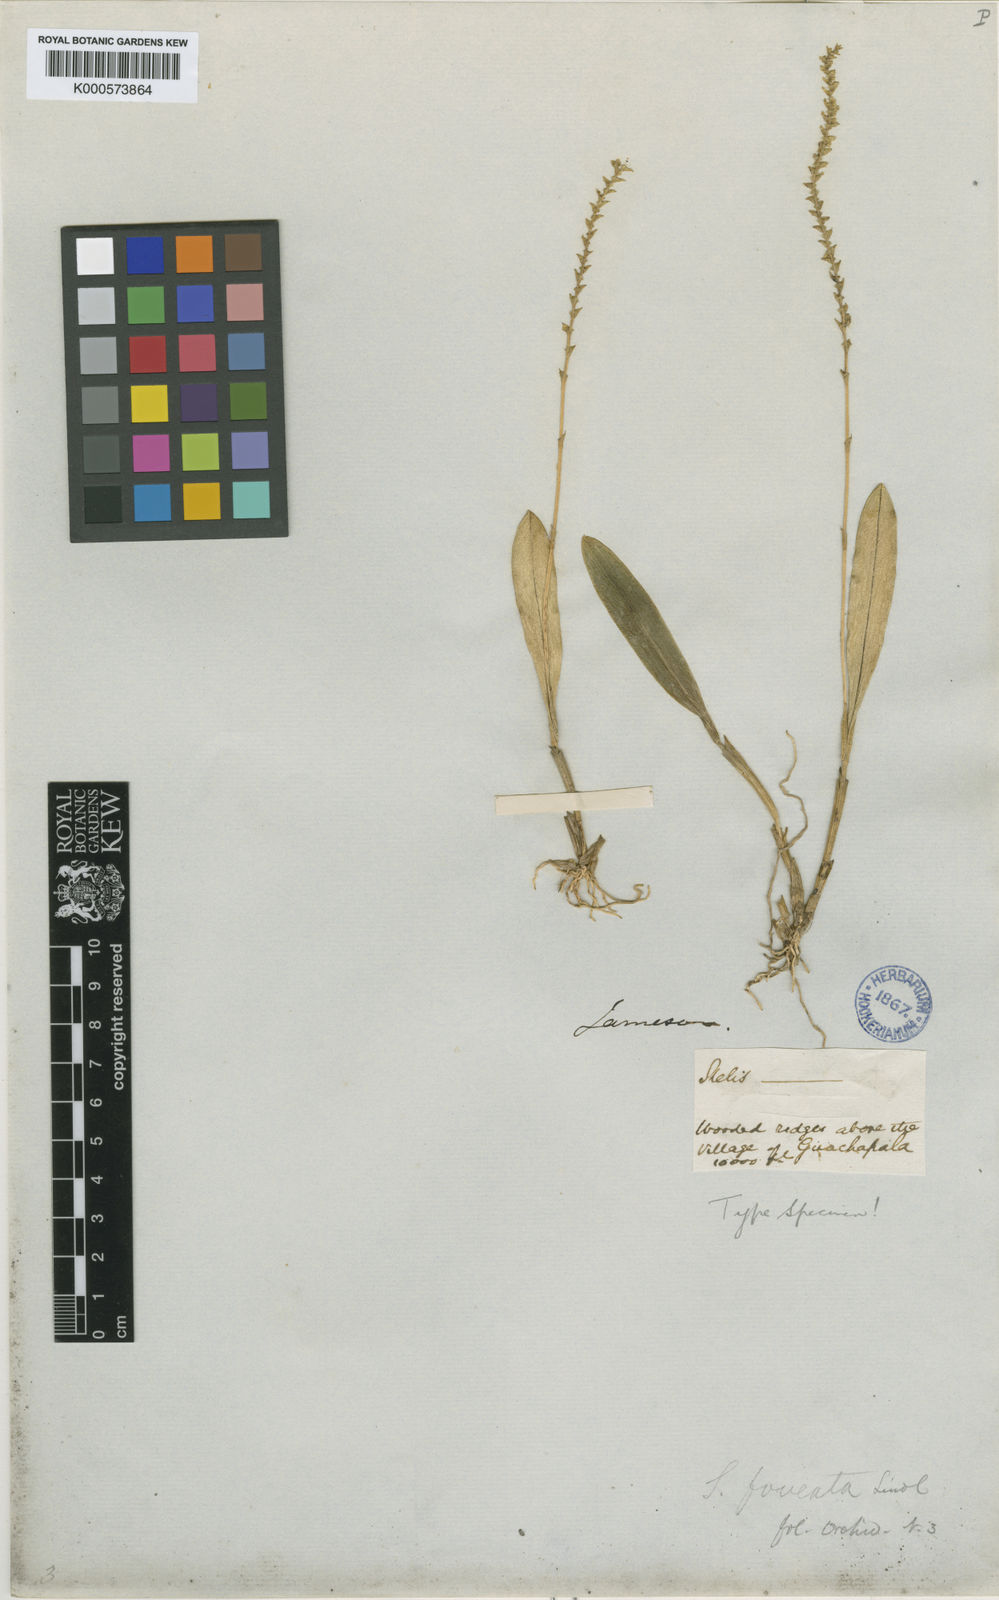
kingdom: Plantae
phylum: Tracheophyta
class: Liliopsida
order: Asparagales
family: Orchidaceae
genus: Stelis
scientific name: Stelis foveata
